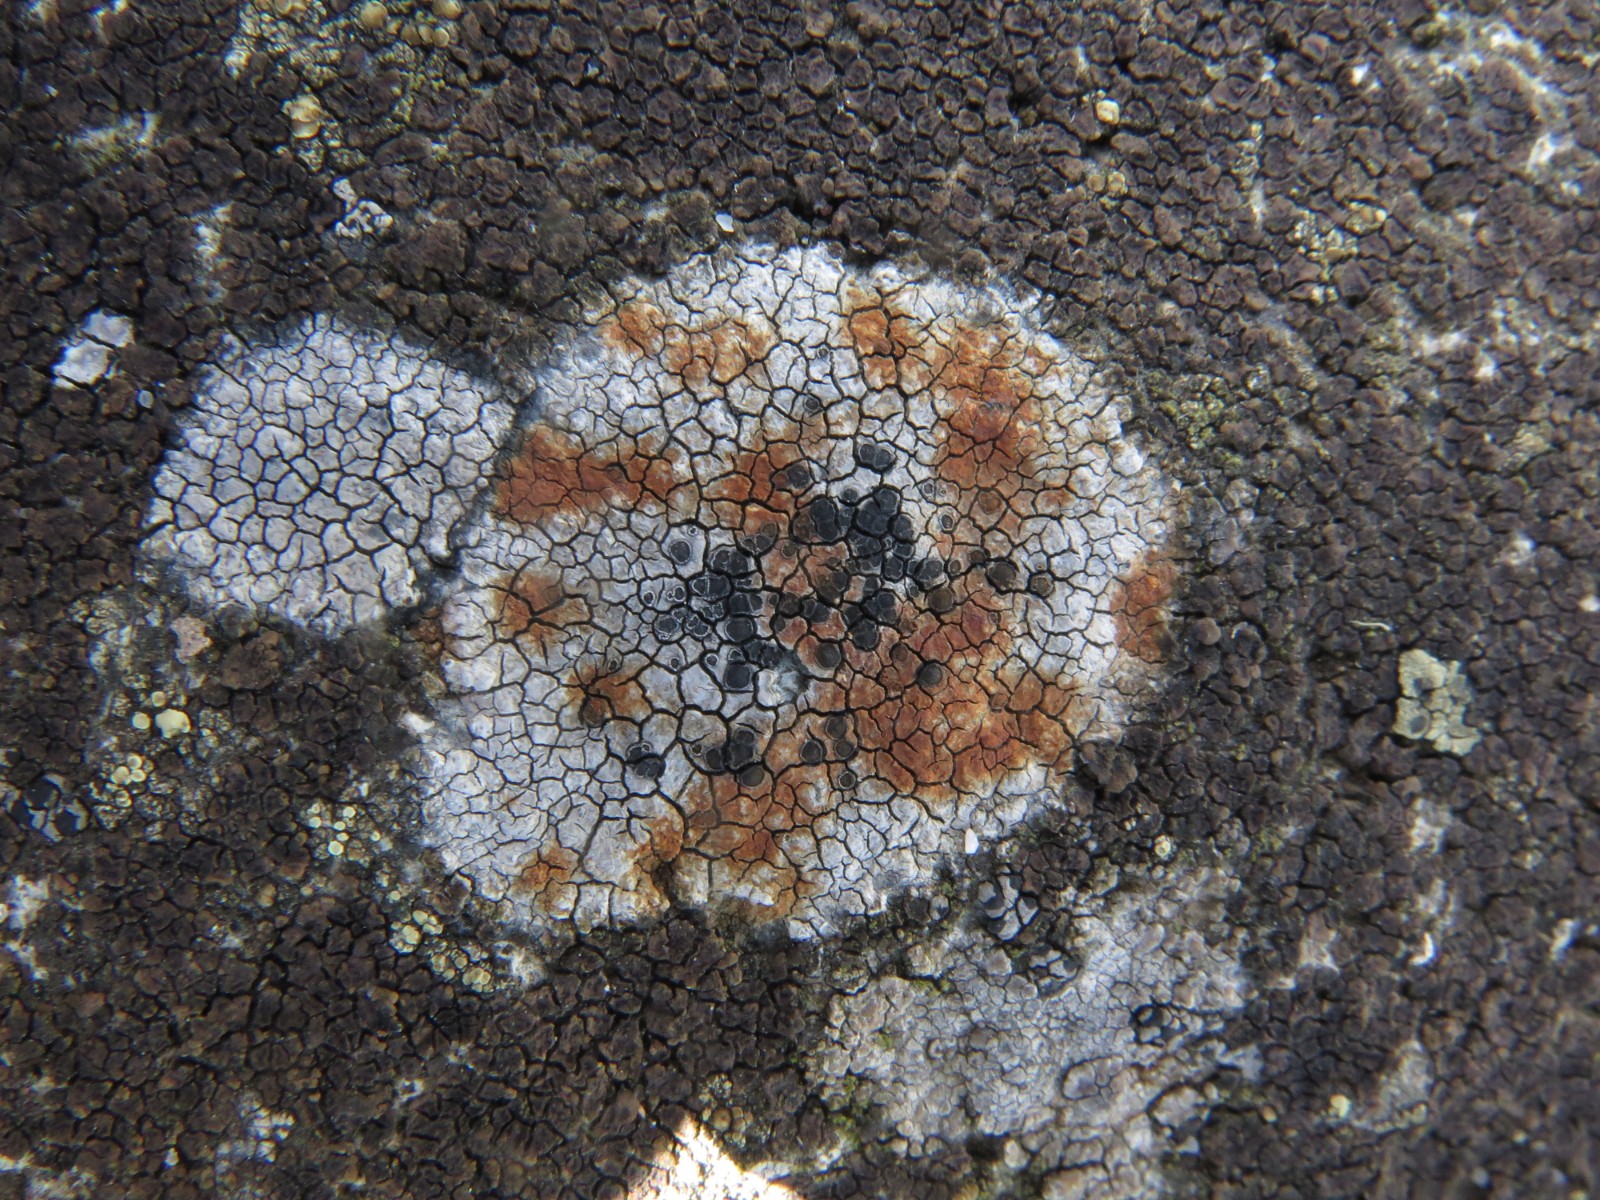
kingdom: Fungi
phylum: Ascomycota
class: Lecanoromycetes
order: Lecideales
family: Lecideaceae
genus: Lecidea
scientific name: Lecidea grisella
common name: grå skivelav
